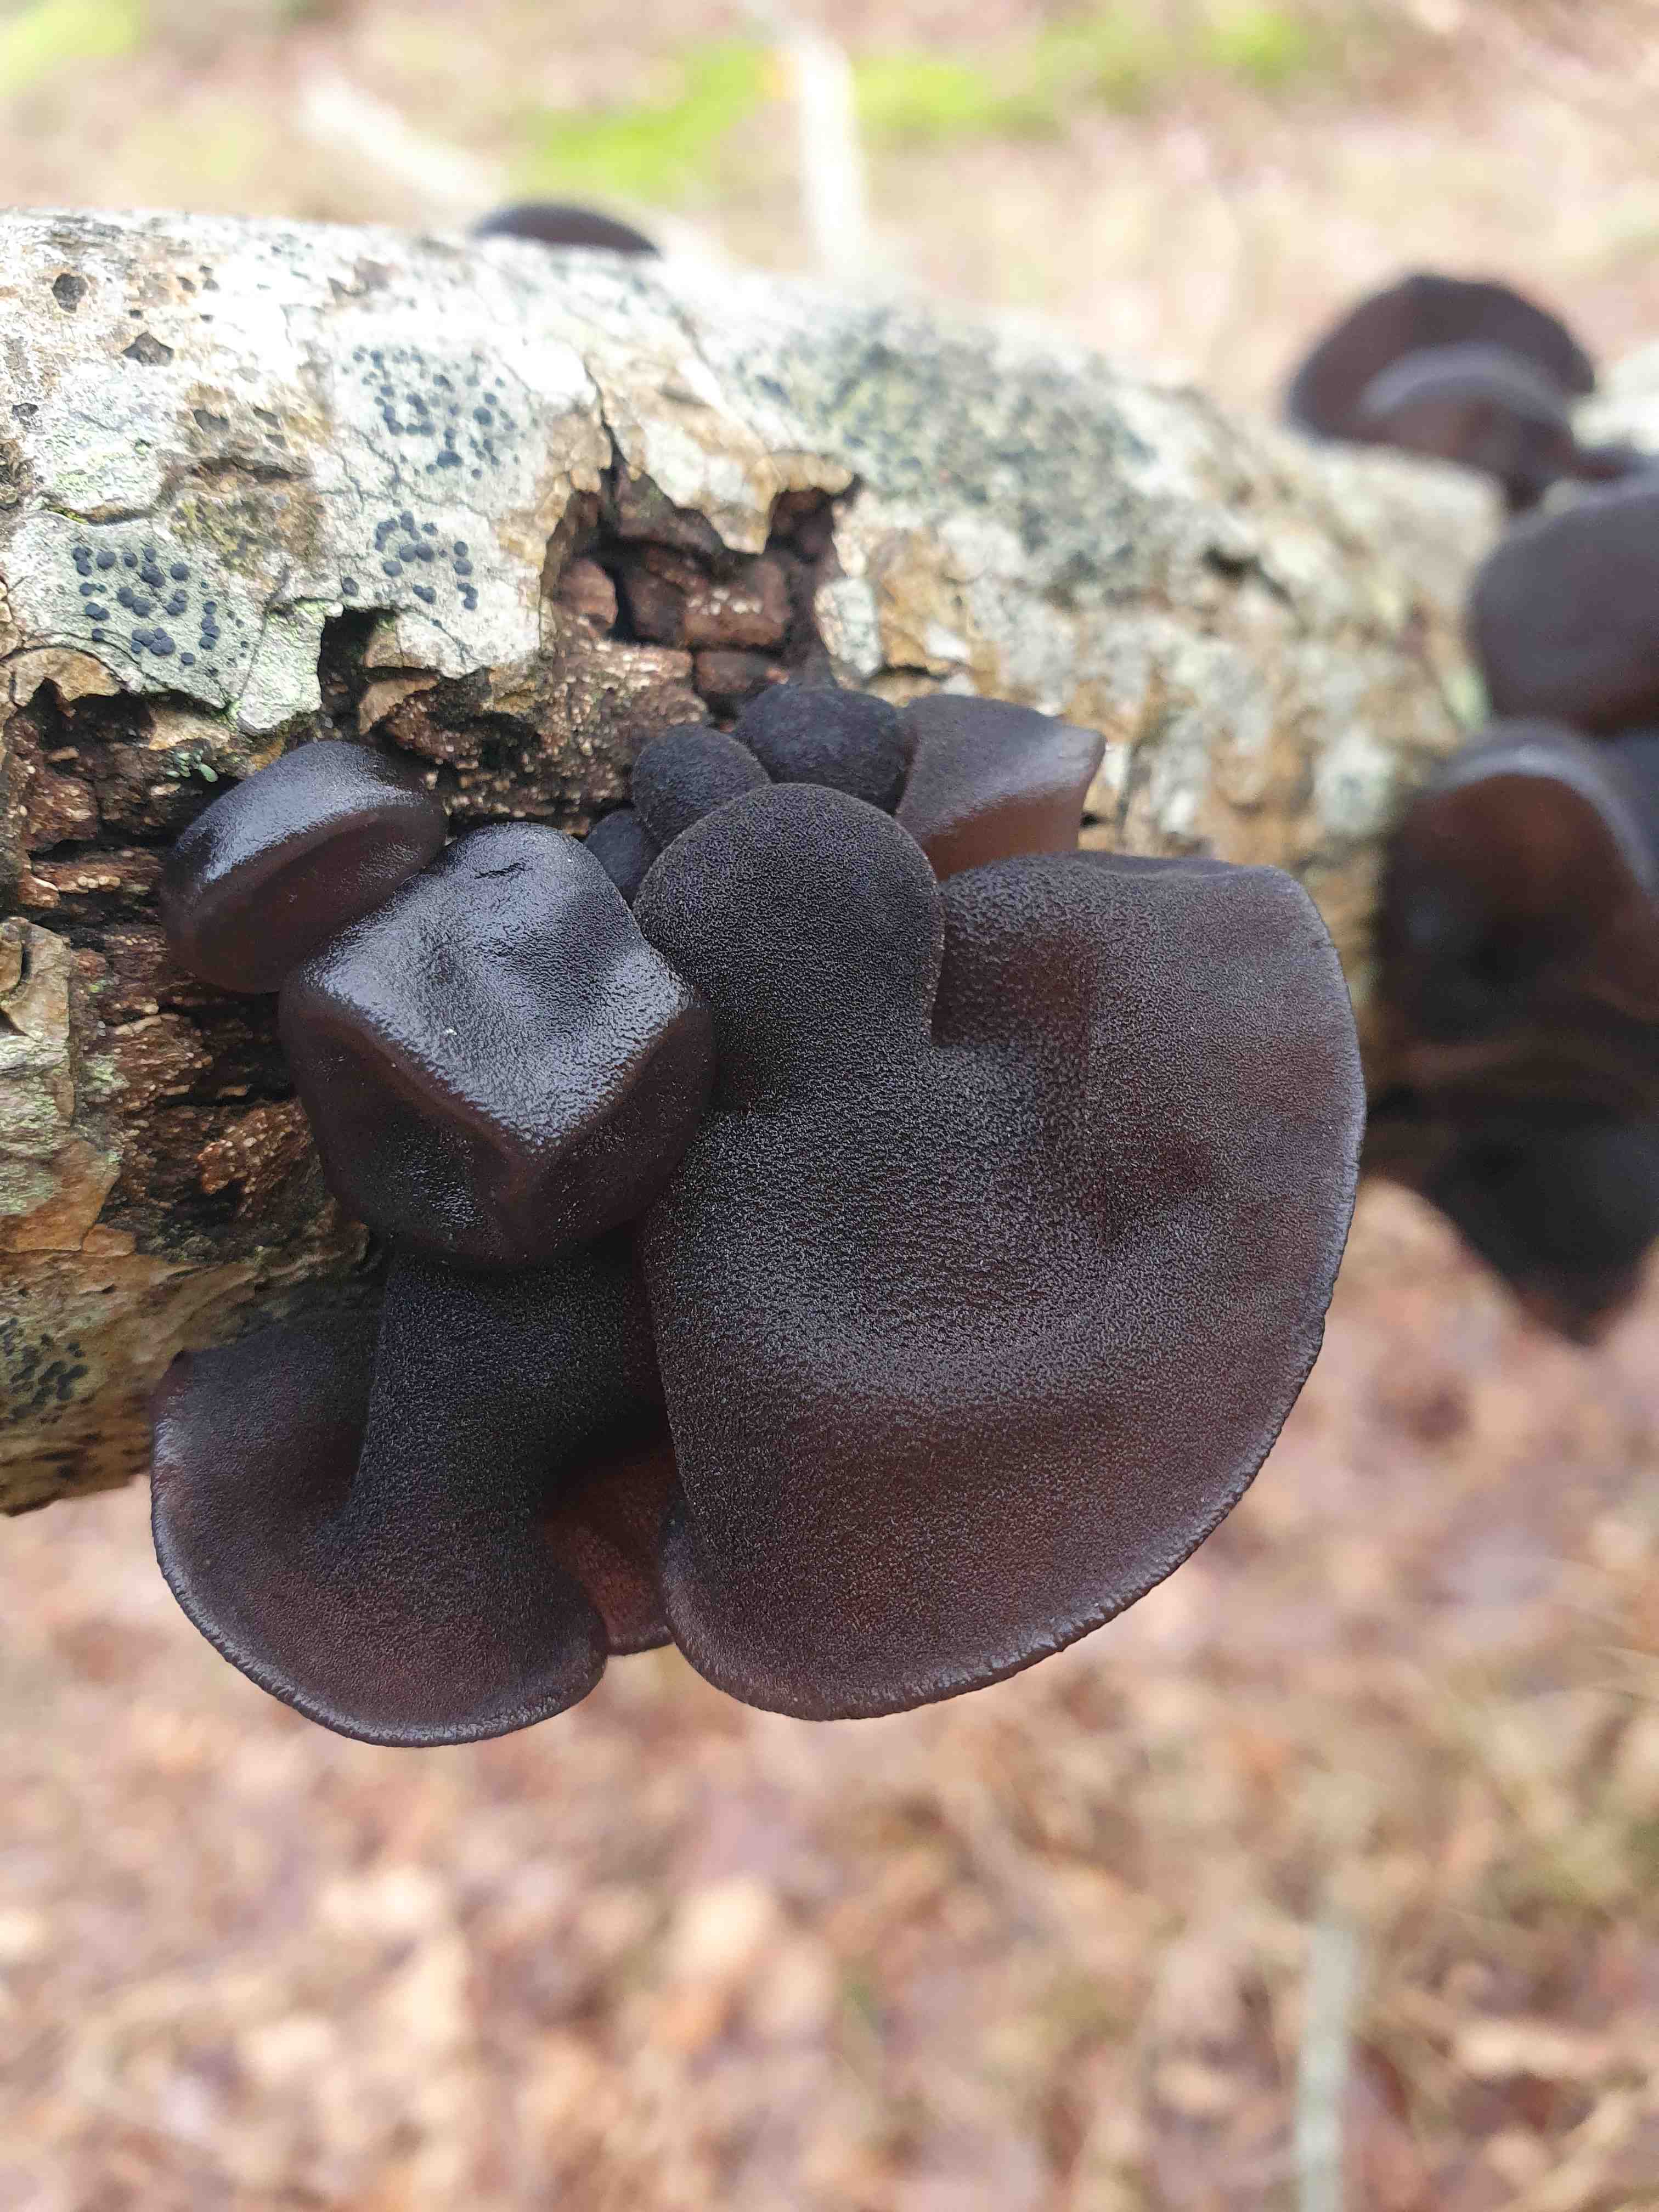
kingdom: Fungi
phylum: Basidiomycota
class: Agaricomycetes
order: Auriculariales
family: Auriculariaceae
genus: Exidia
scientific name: Exidia glandulosa
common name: ege-bævretop
